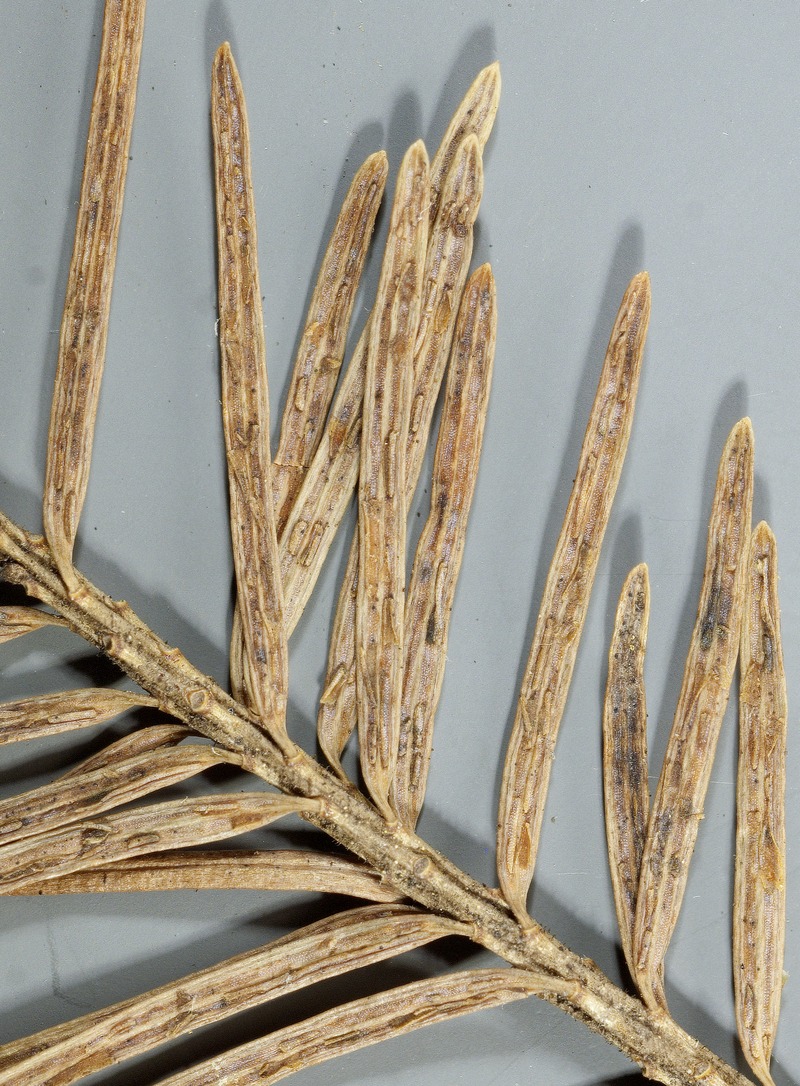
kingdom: Fungi
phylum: Ascomycota
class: Leotiomycetes
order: Helotiales
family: Cenangiaceae
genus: Rhabdocline
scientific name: Rhabdocline pseudotsugae
